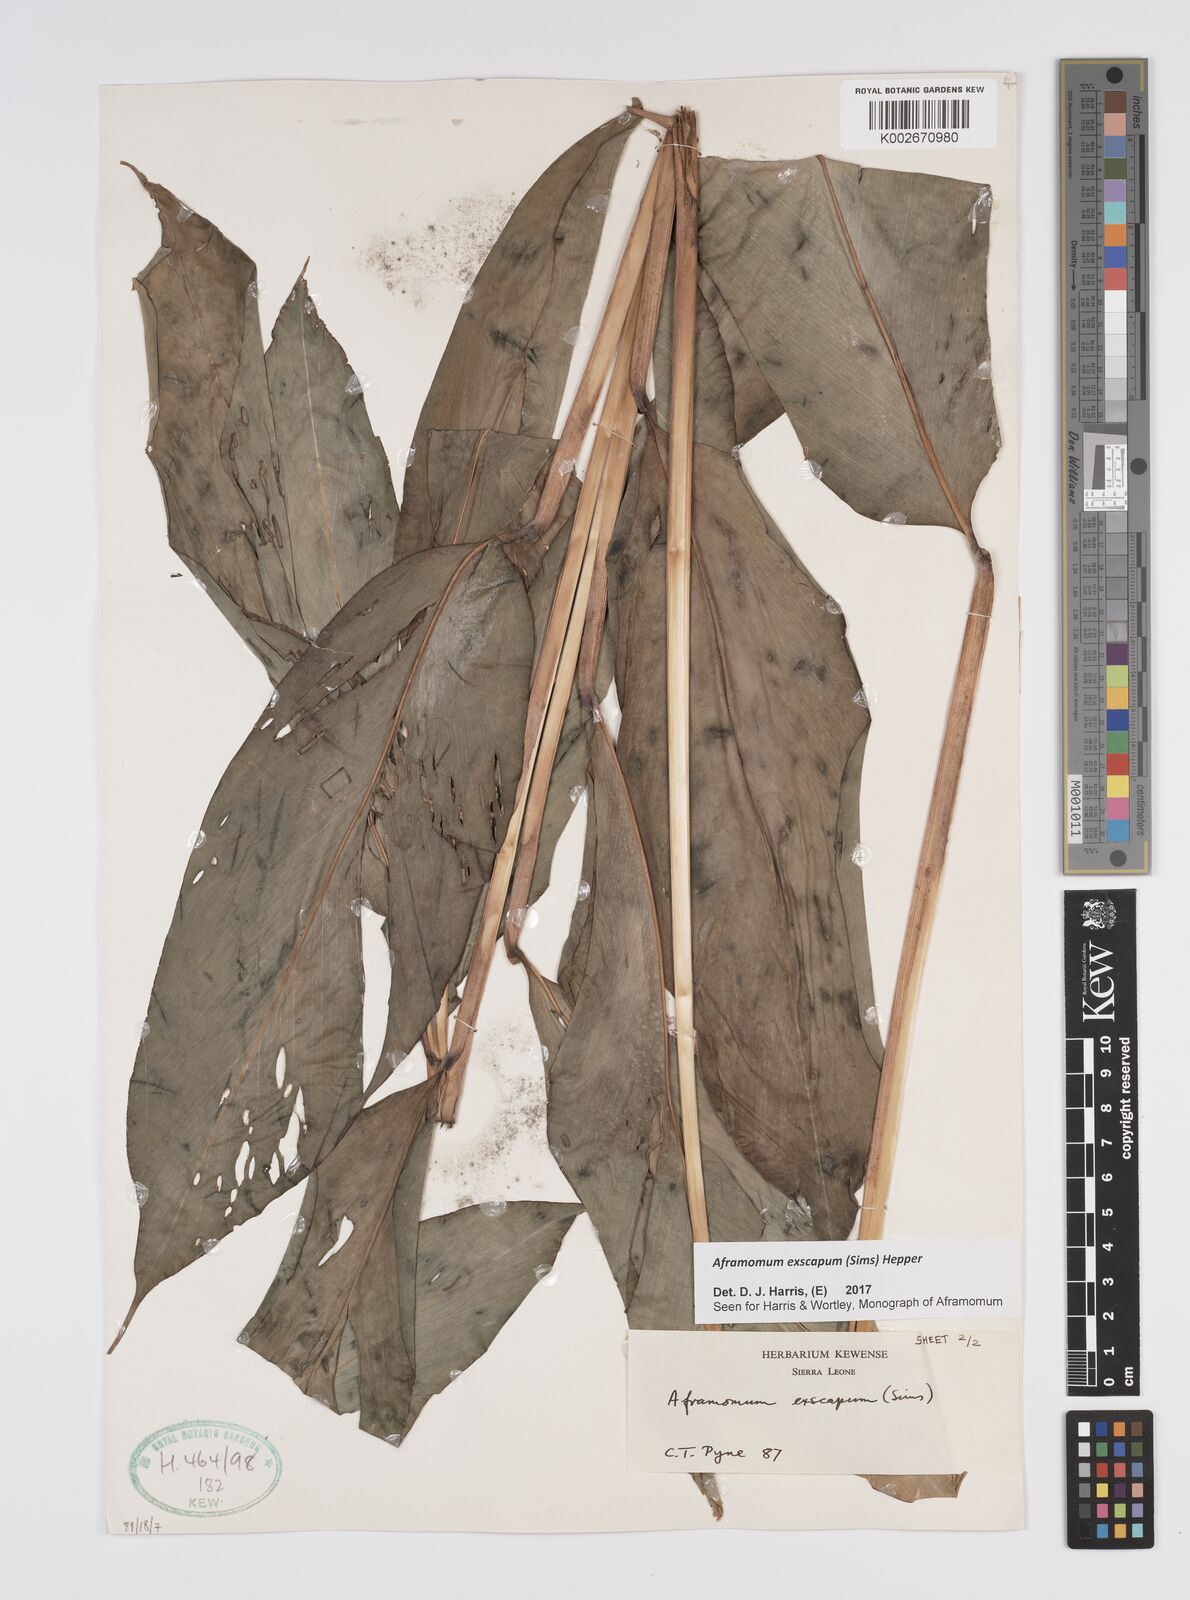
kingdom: Plantae
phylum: Tracheophyta
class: Liliopsida
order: Zingiberales
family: Zingiberaceae
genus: Aframomum
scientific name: Aframomum exscapum
